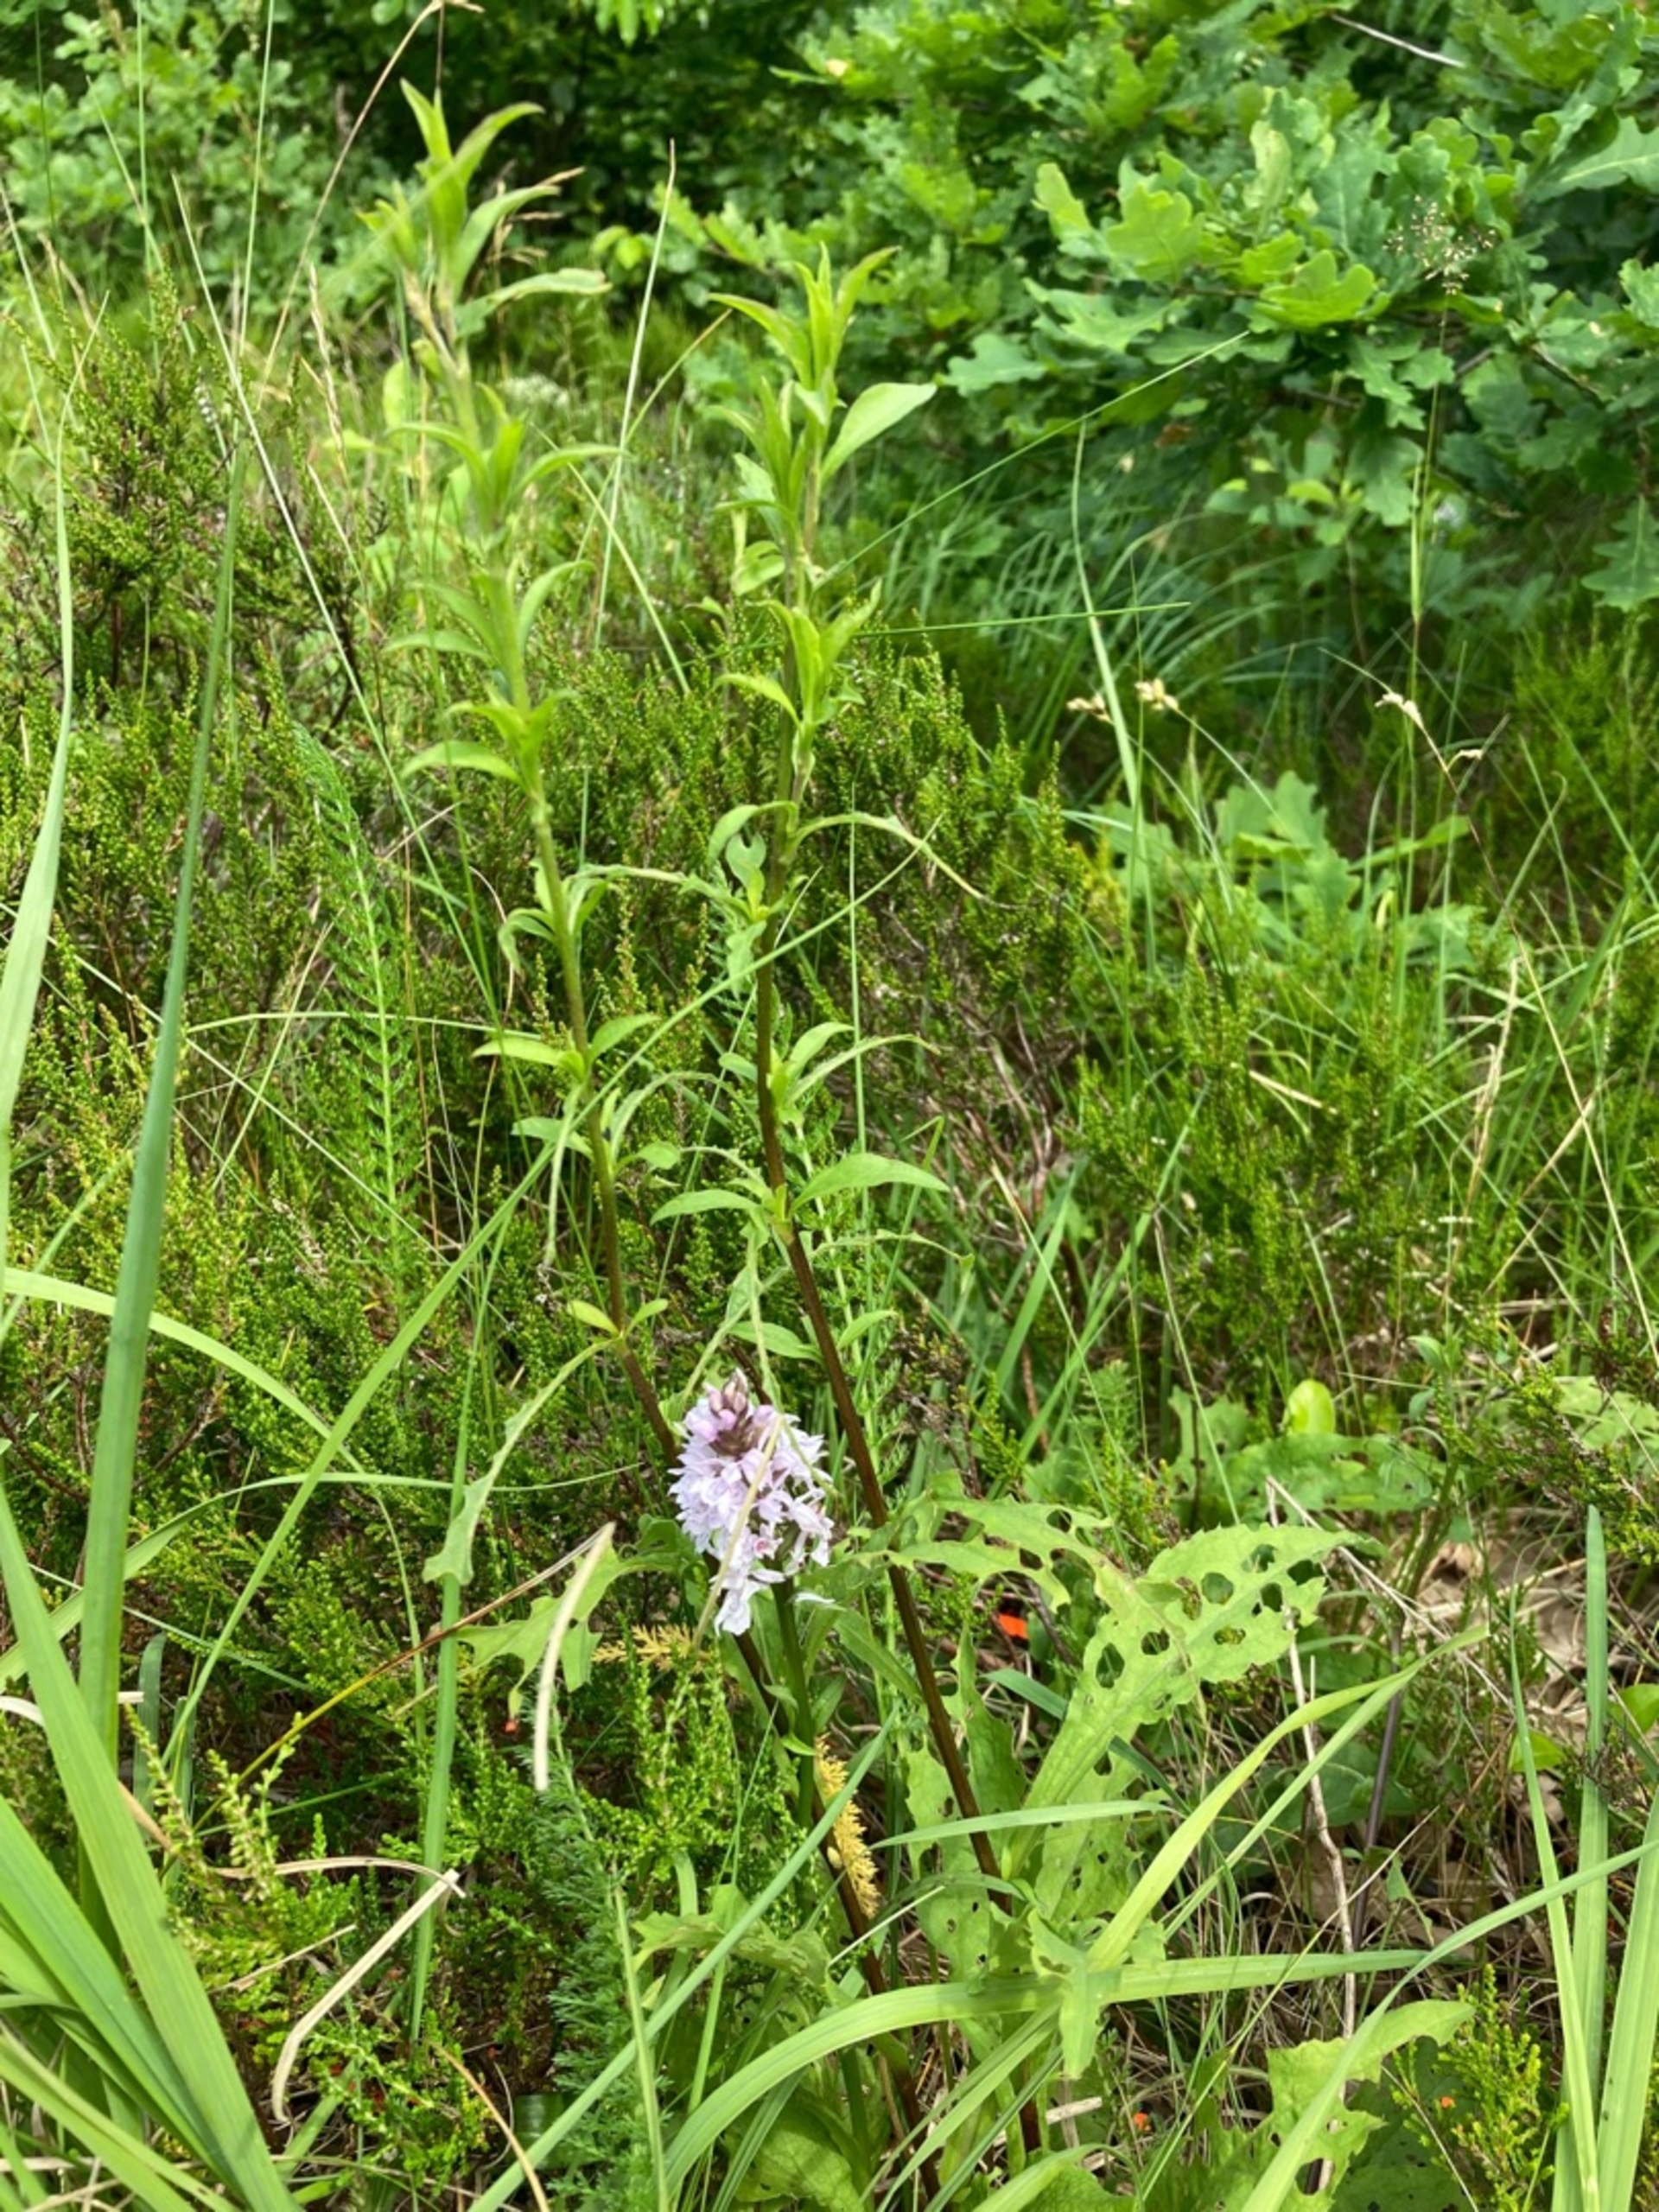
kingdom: Plantae
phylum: Tracheophyta
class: Liliopsida
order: Asparagales
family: Orchidaceae
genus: Dactylorhiza
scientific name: Dactylorhiza maculata
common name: Plettet gøgeurt
